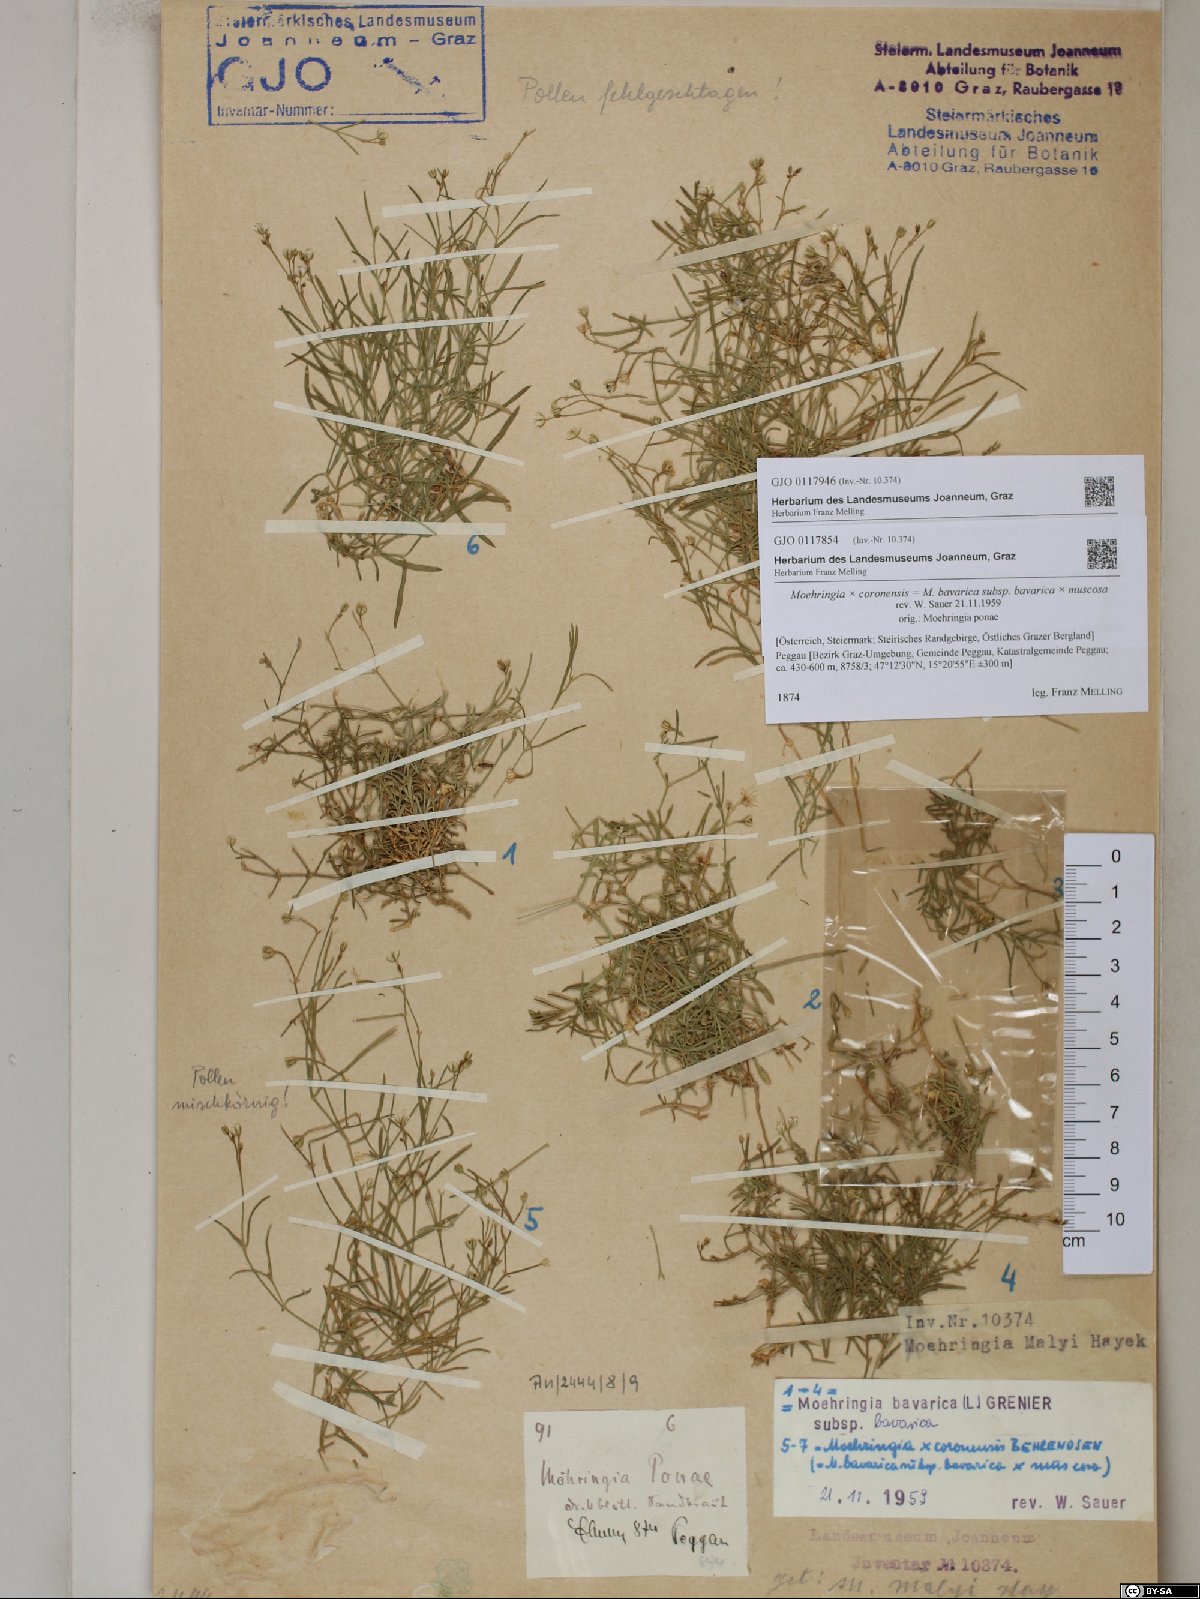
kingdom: Plantae
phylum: Tracheophyta
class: Magnoliopsida
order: Caryophyllales
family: Caryophyllaceae
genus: Moehringia
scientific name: Moehringia bavarica
